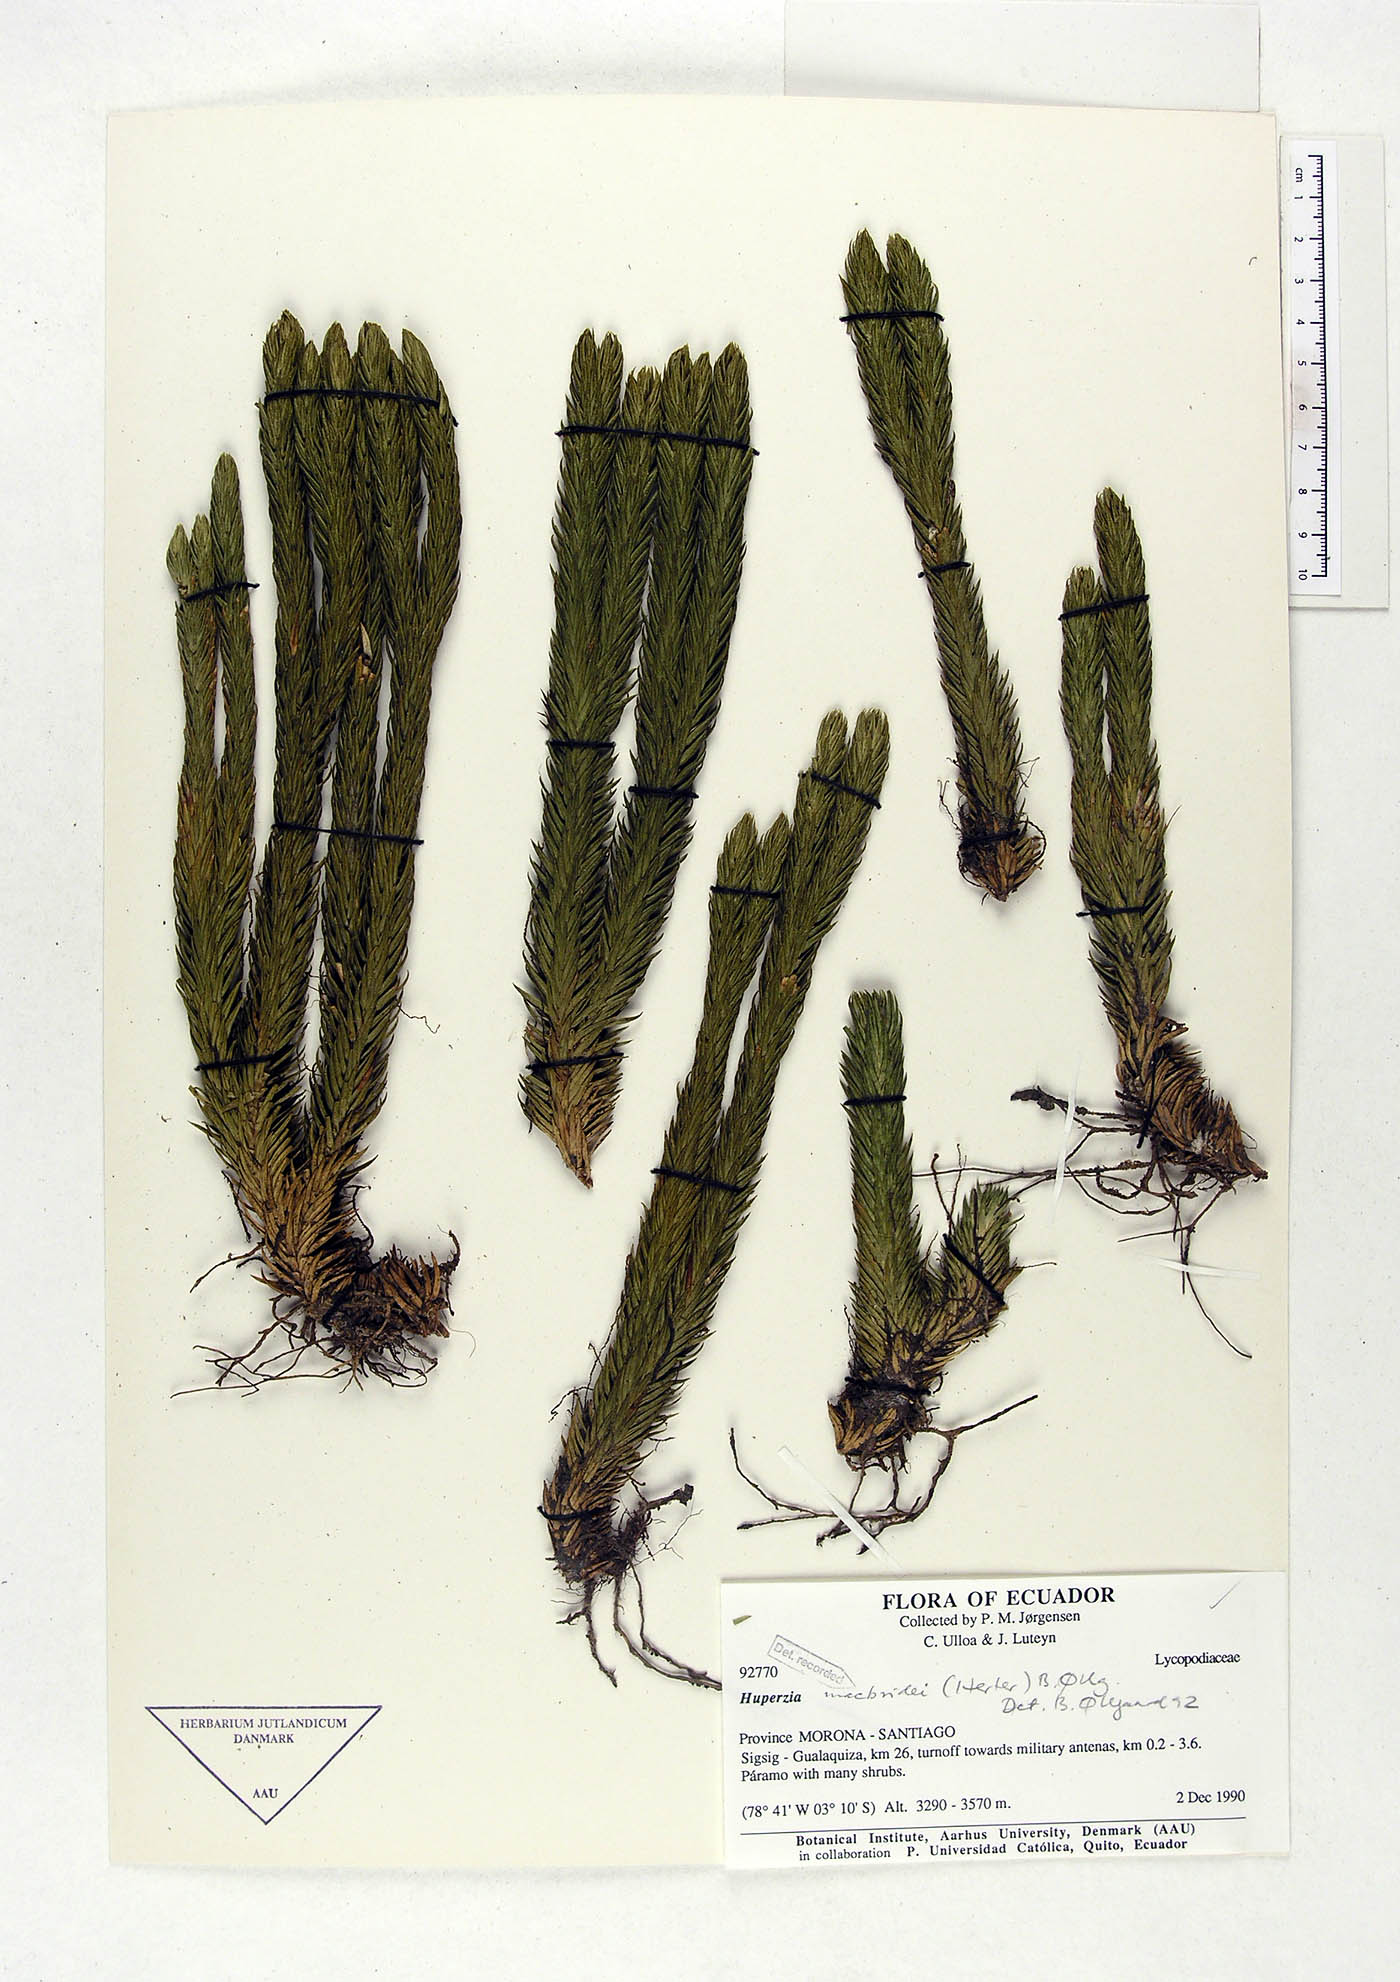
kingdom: Plantae
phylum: Tracheophyta
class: Lycopodiopsida
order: Lycopodiales
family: Lycopodiaceae
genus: Phlegmariurus
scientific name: Phlegmariurus macbridei
